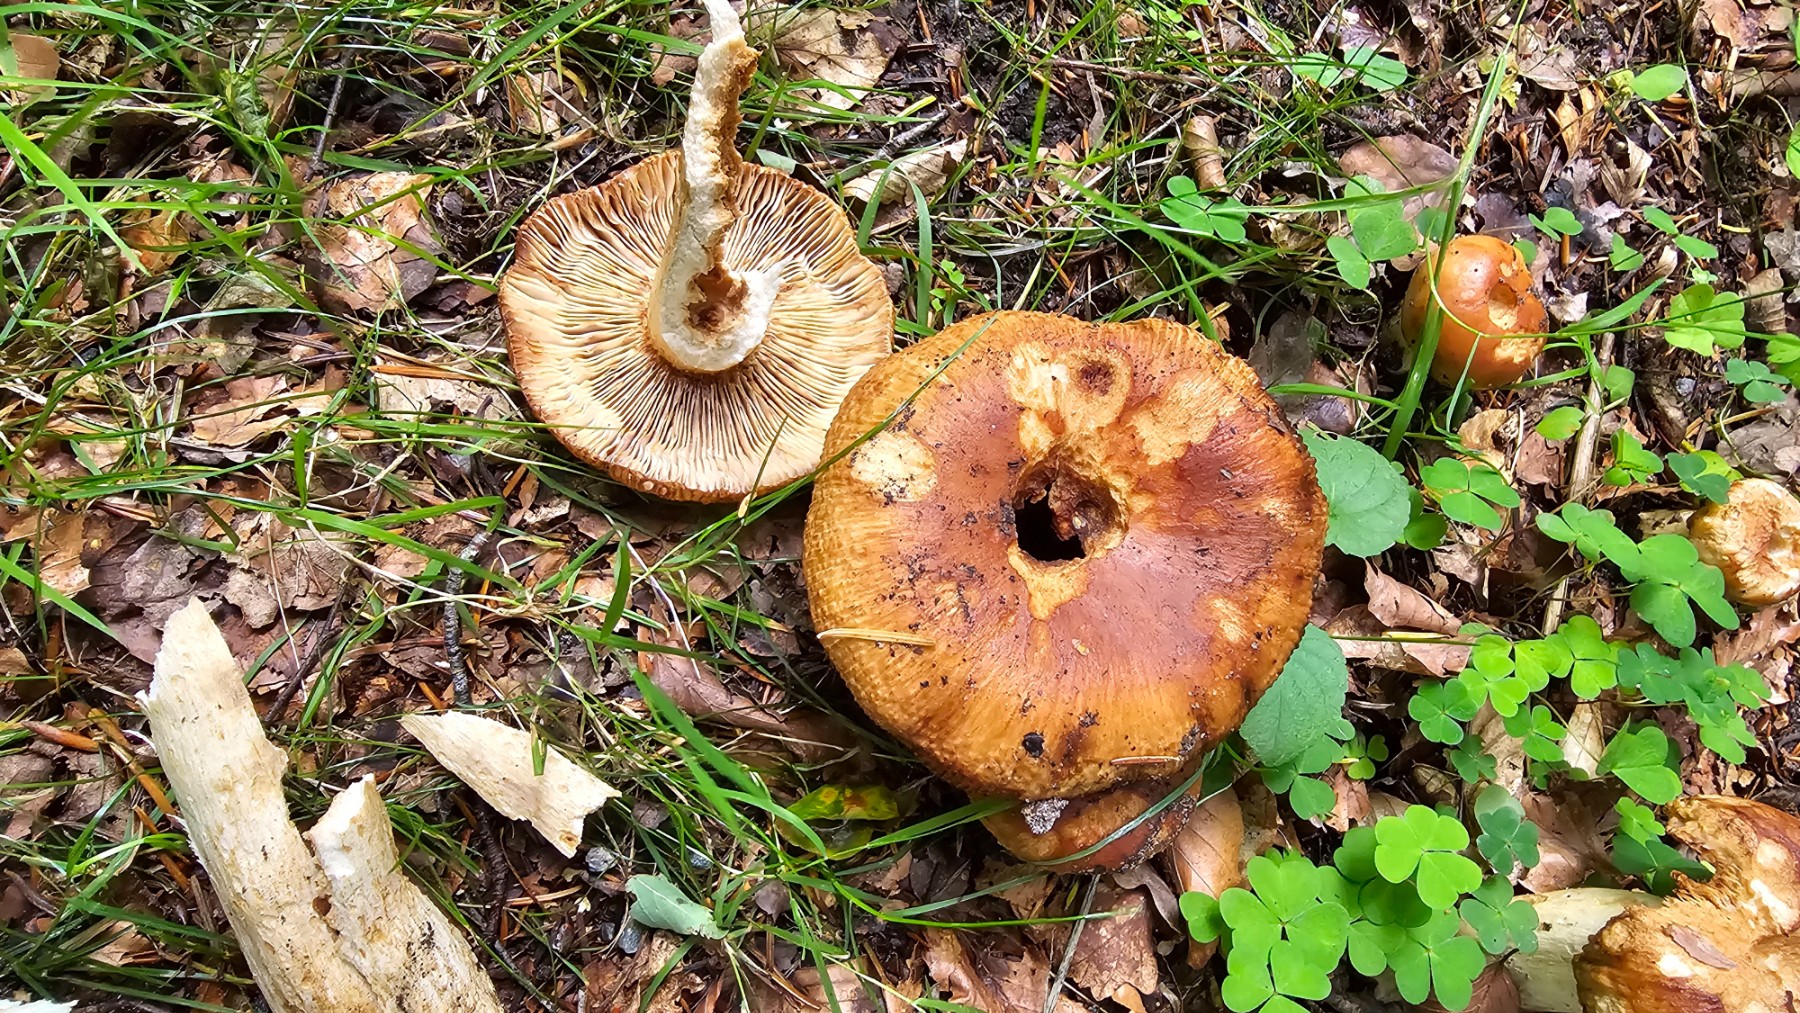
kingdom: Fungi
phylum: Basidiomycota
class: Agaricomycetes
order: Russulales
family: Russulaceae
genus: Russula
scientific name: Russula foetens
